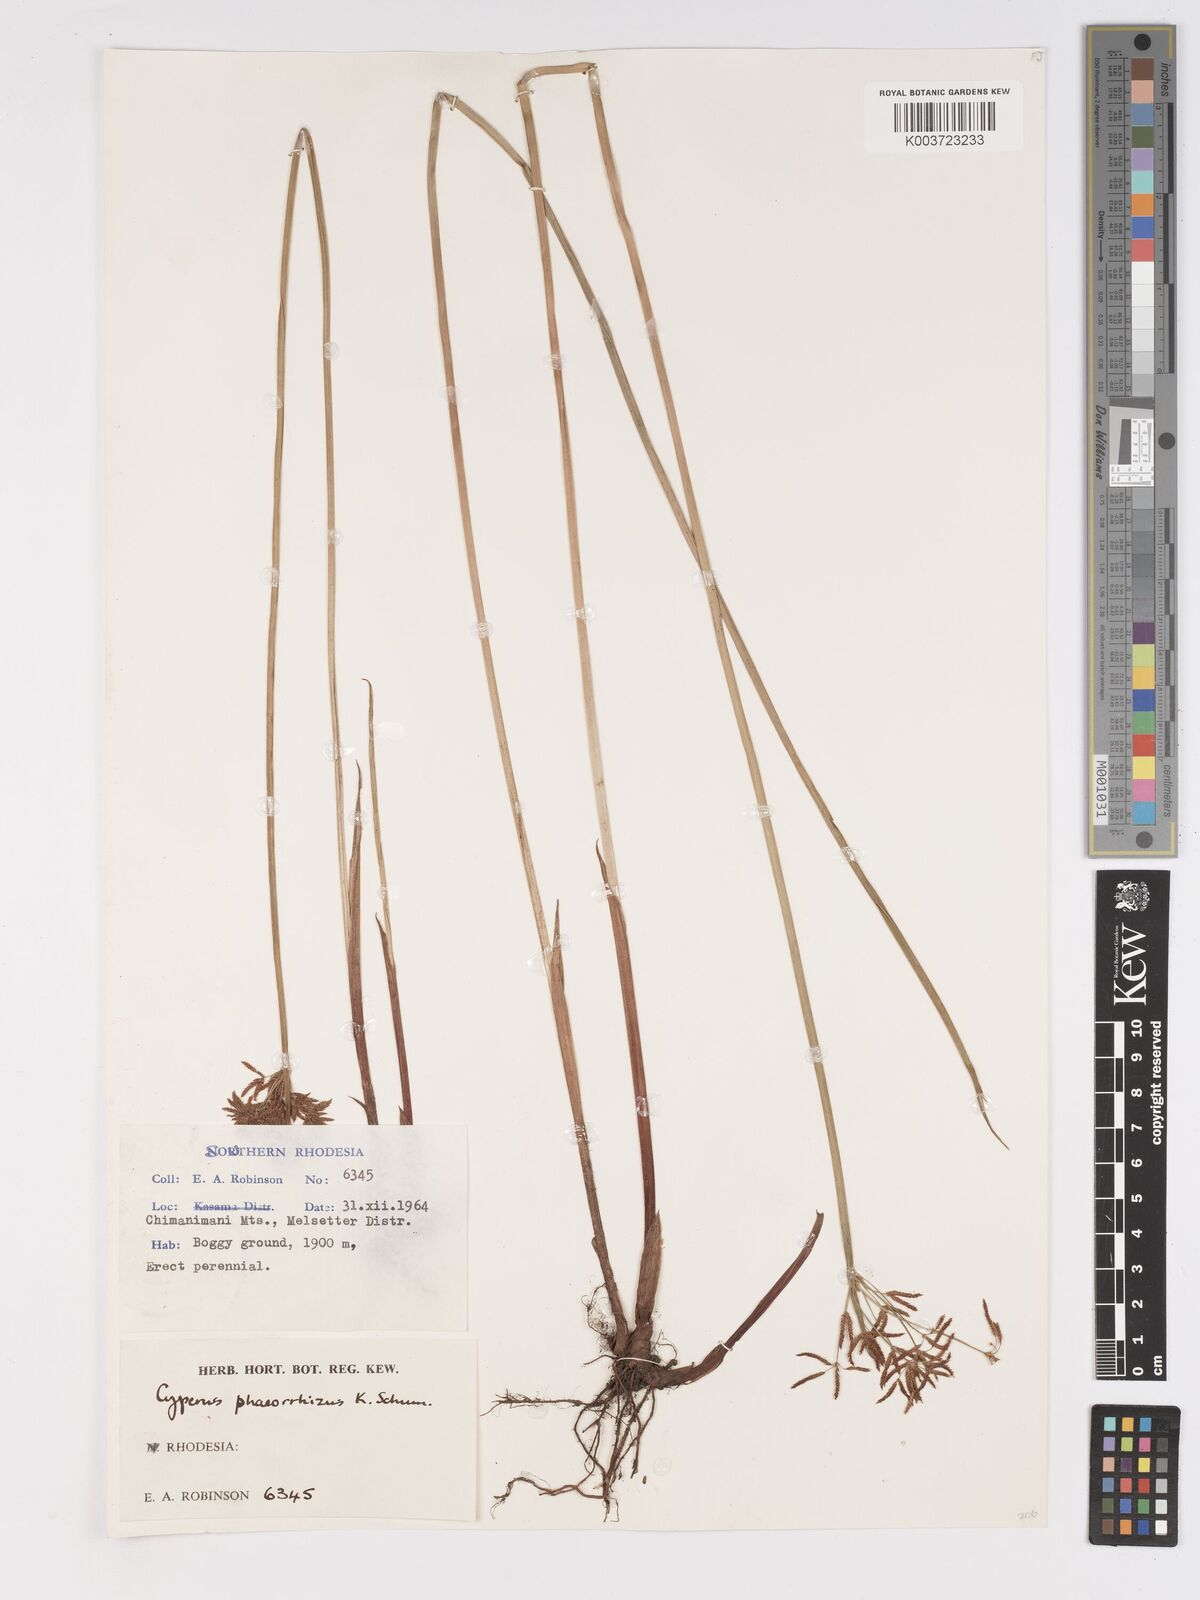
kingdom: Plantae
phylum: Tracheophyta
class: Liliopsida
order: Poales
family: Cyperaceae
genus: Cyperus
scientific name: Cyperus haspan
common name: Haspan flatsedge
